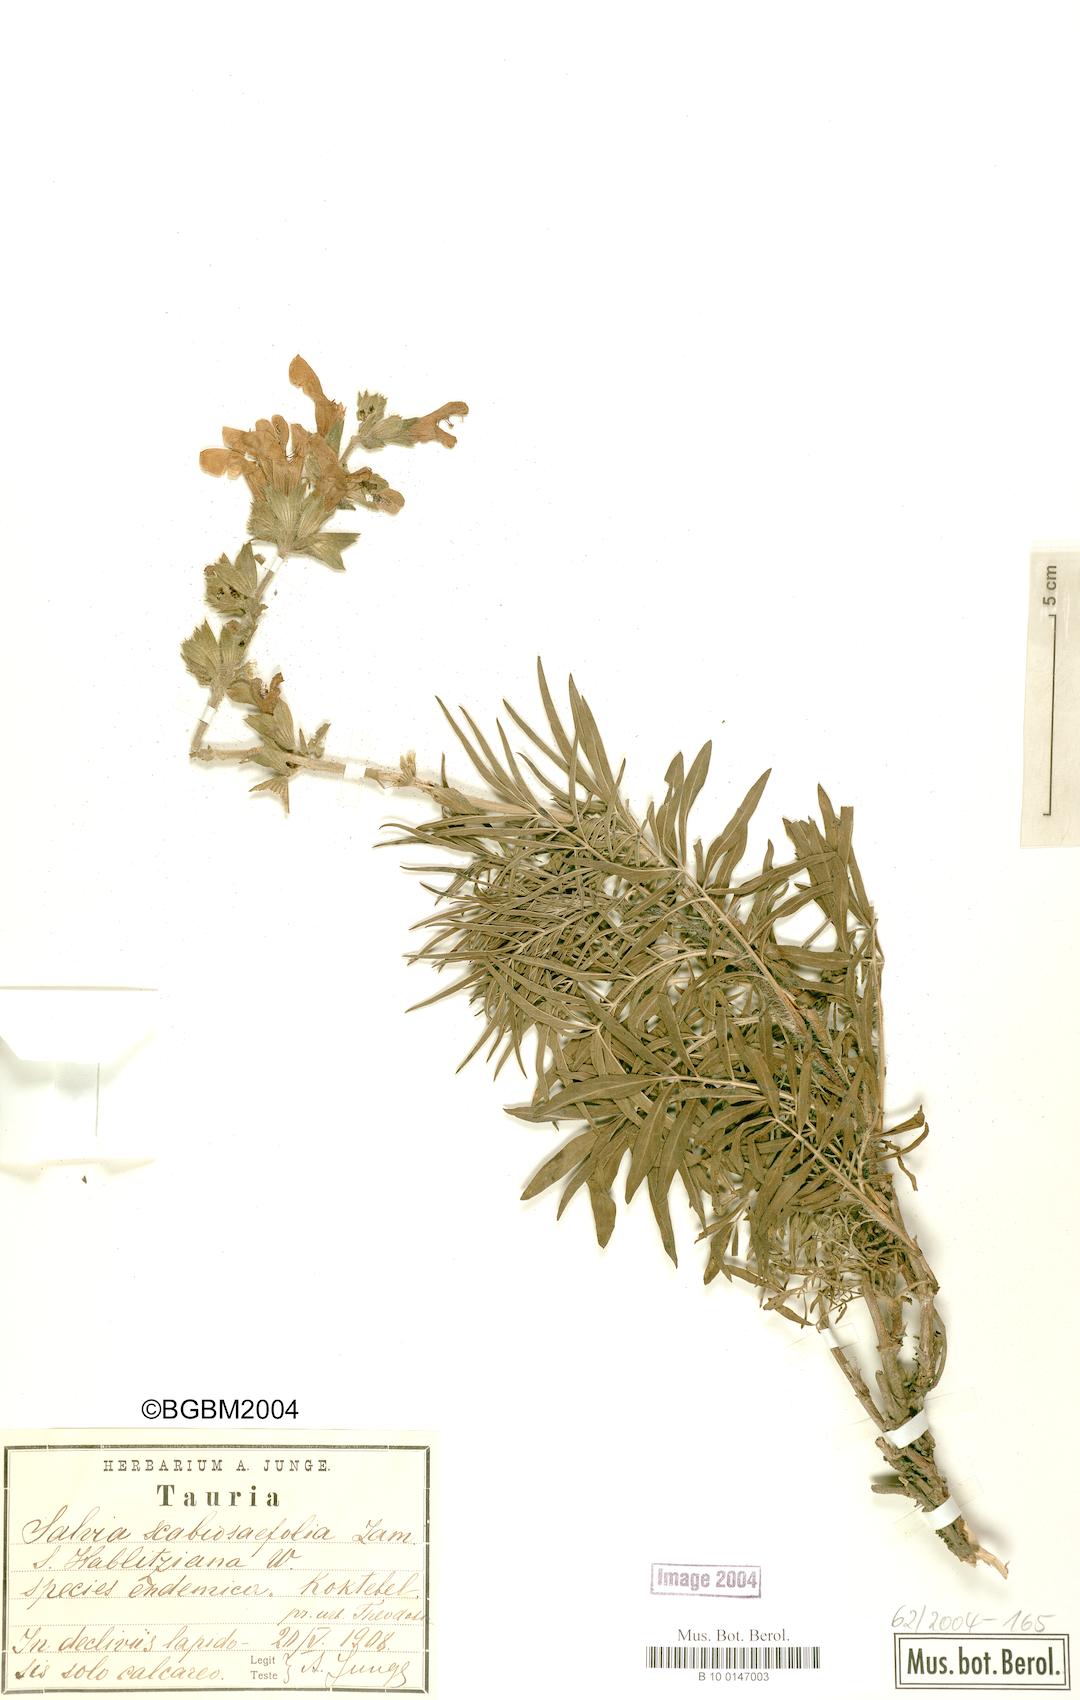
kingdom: Plantae
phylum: Tracheophyta
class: Magnoliopsida
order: Lamiales
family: Lamiaceae
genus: Salvia
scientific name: Salvia scabiosifolia
